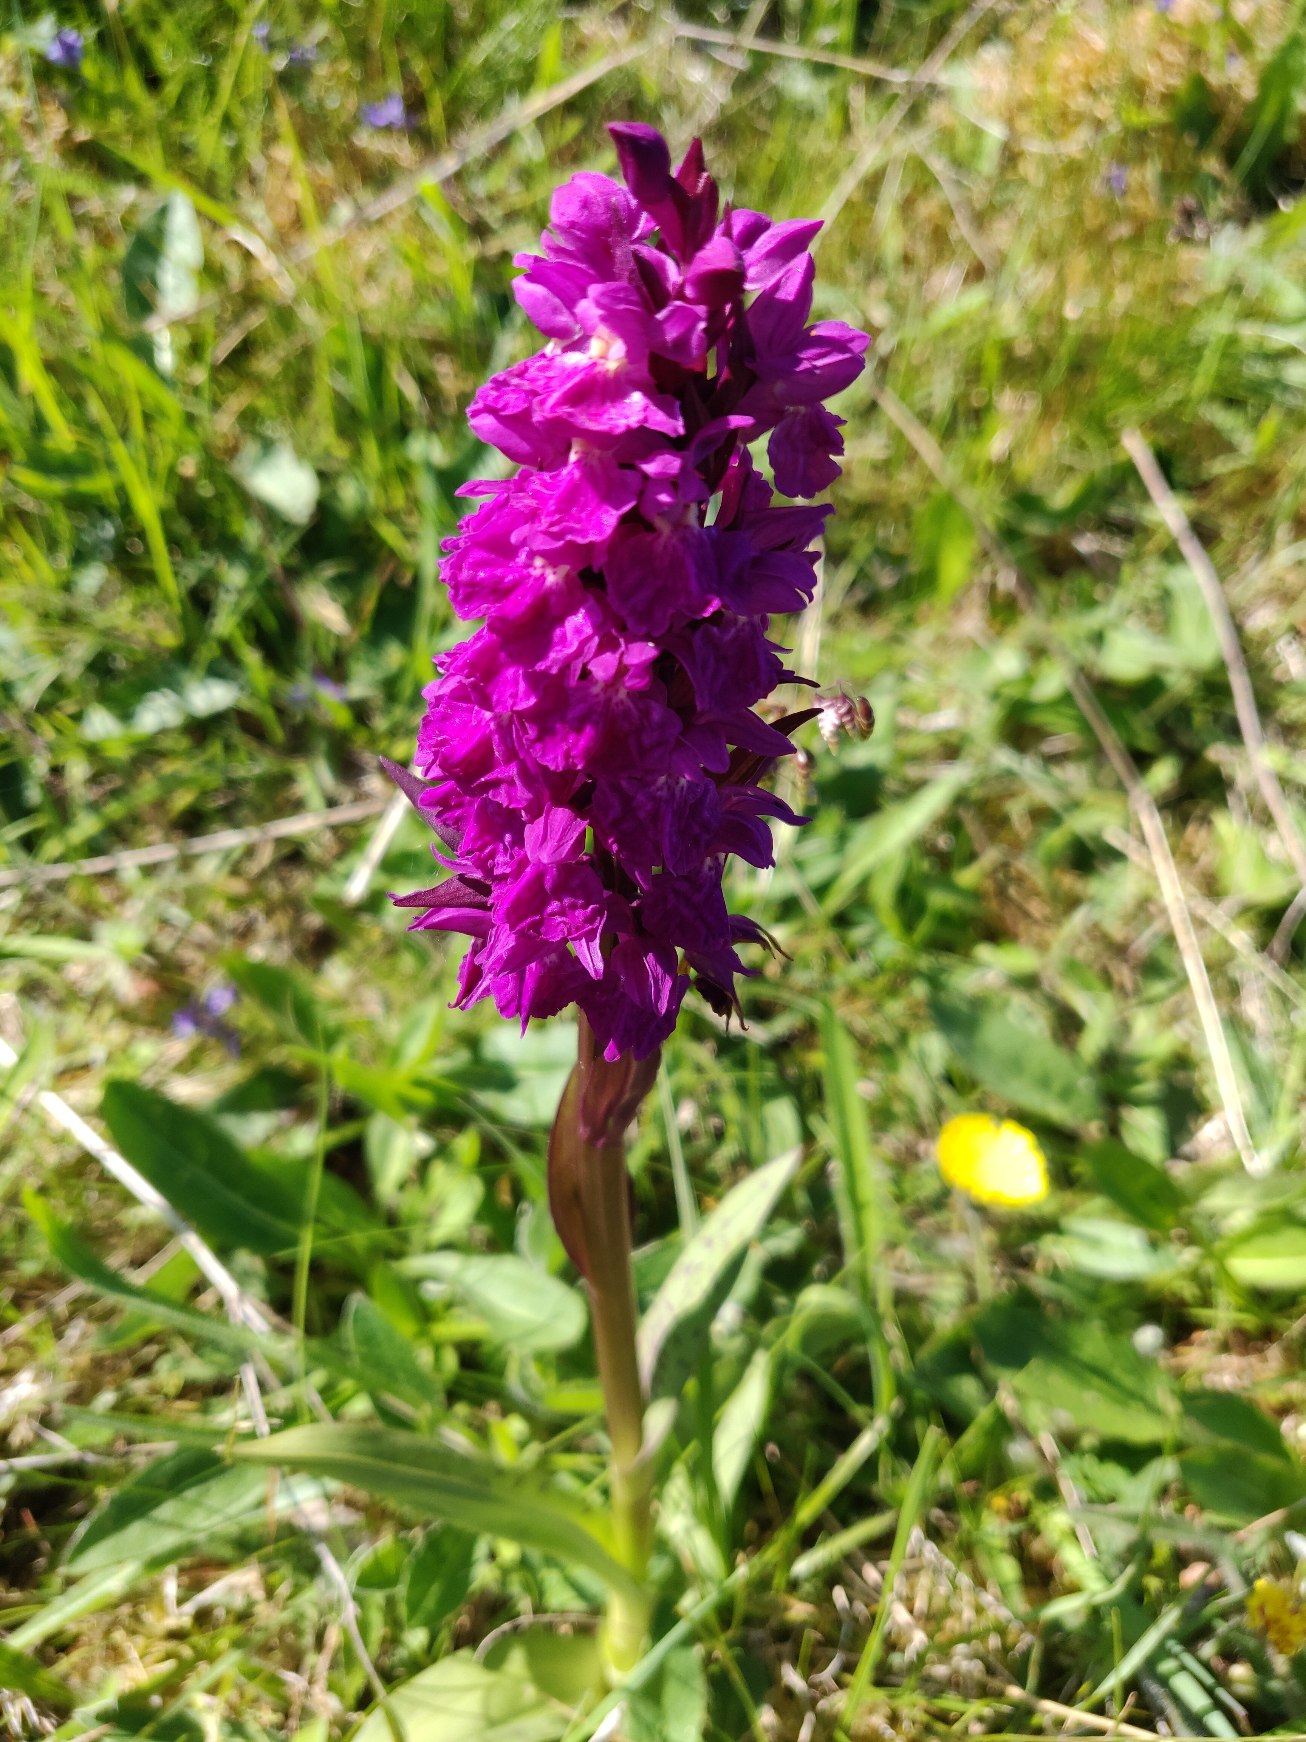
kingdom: Plantae
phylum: Tracheophyta
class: Liliopsida
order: Asparagales
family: Orchidaceae
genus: Dactylorhiza
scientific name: Dactylorhiza majalis
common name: Maj-gøgeurt
